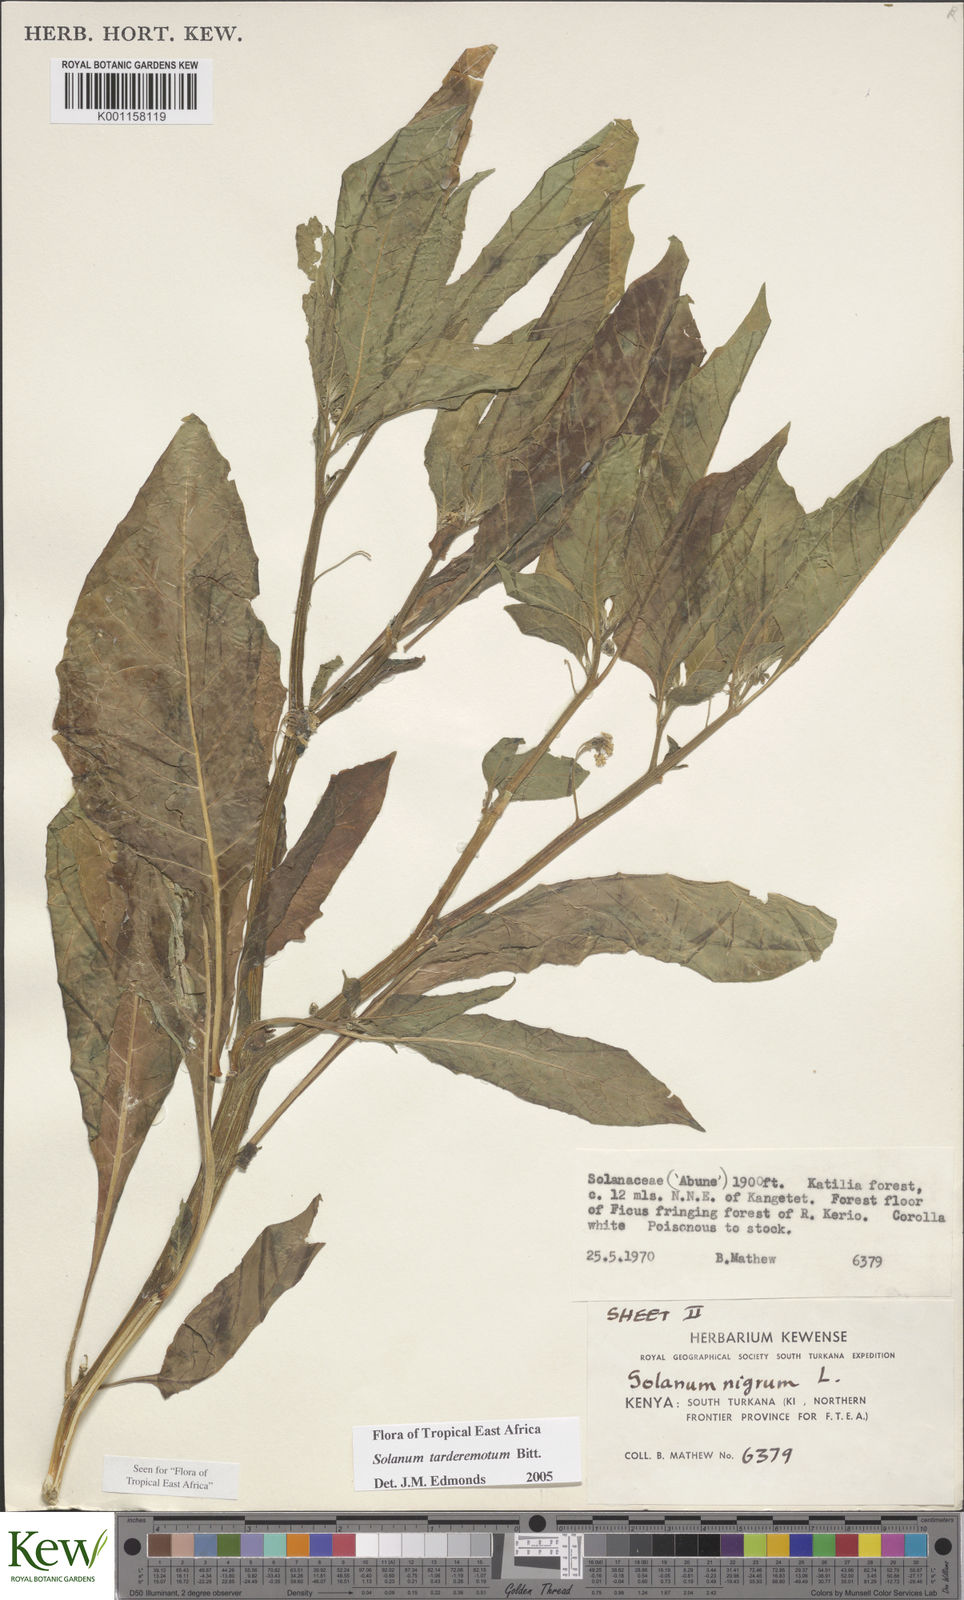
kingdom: Plantae
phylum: Tracheophyta
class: Magnoliopsida
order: Solanales
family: Solanaceae
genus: Solanum
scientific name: Solanum tarderemotum
